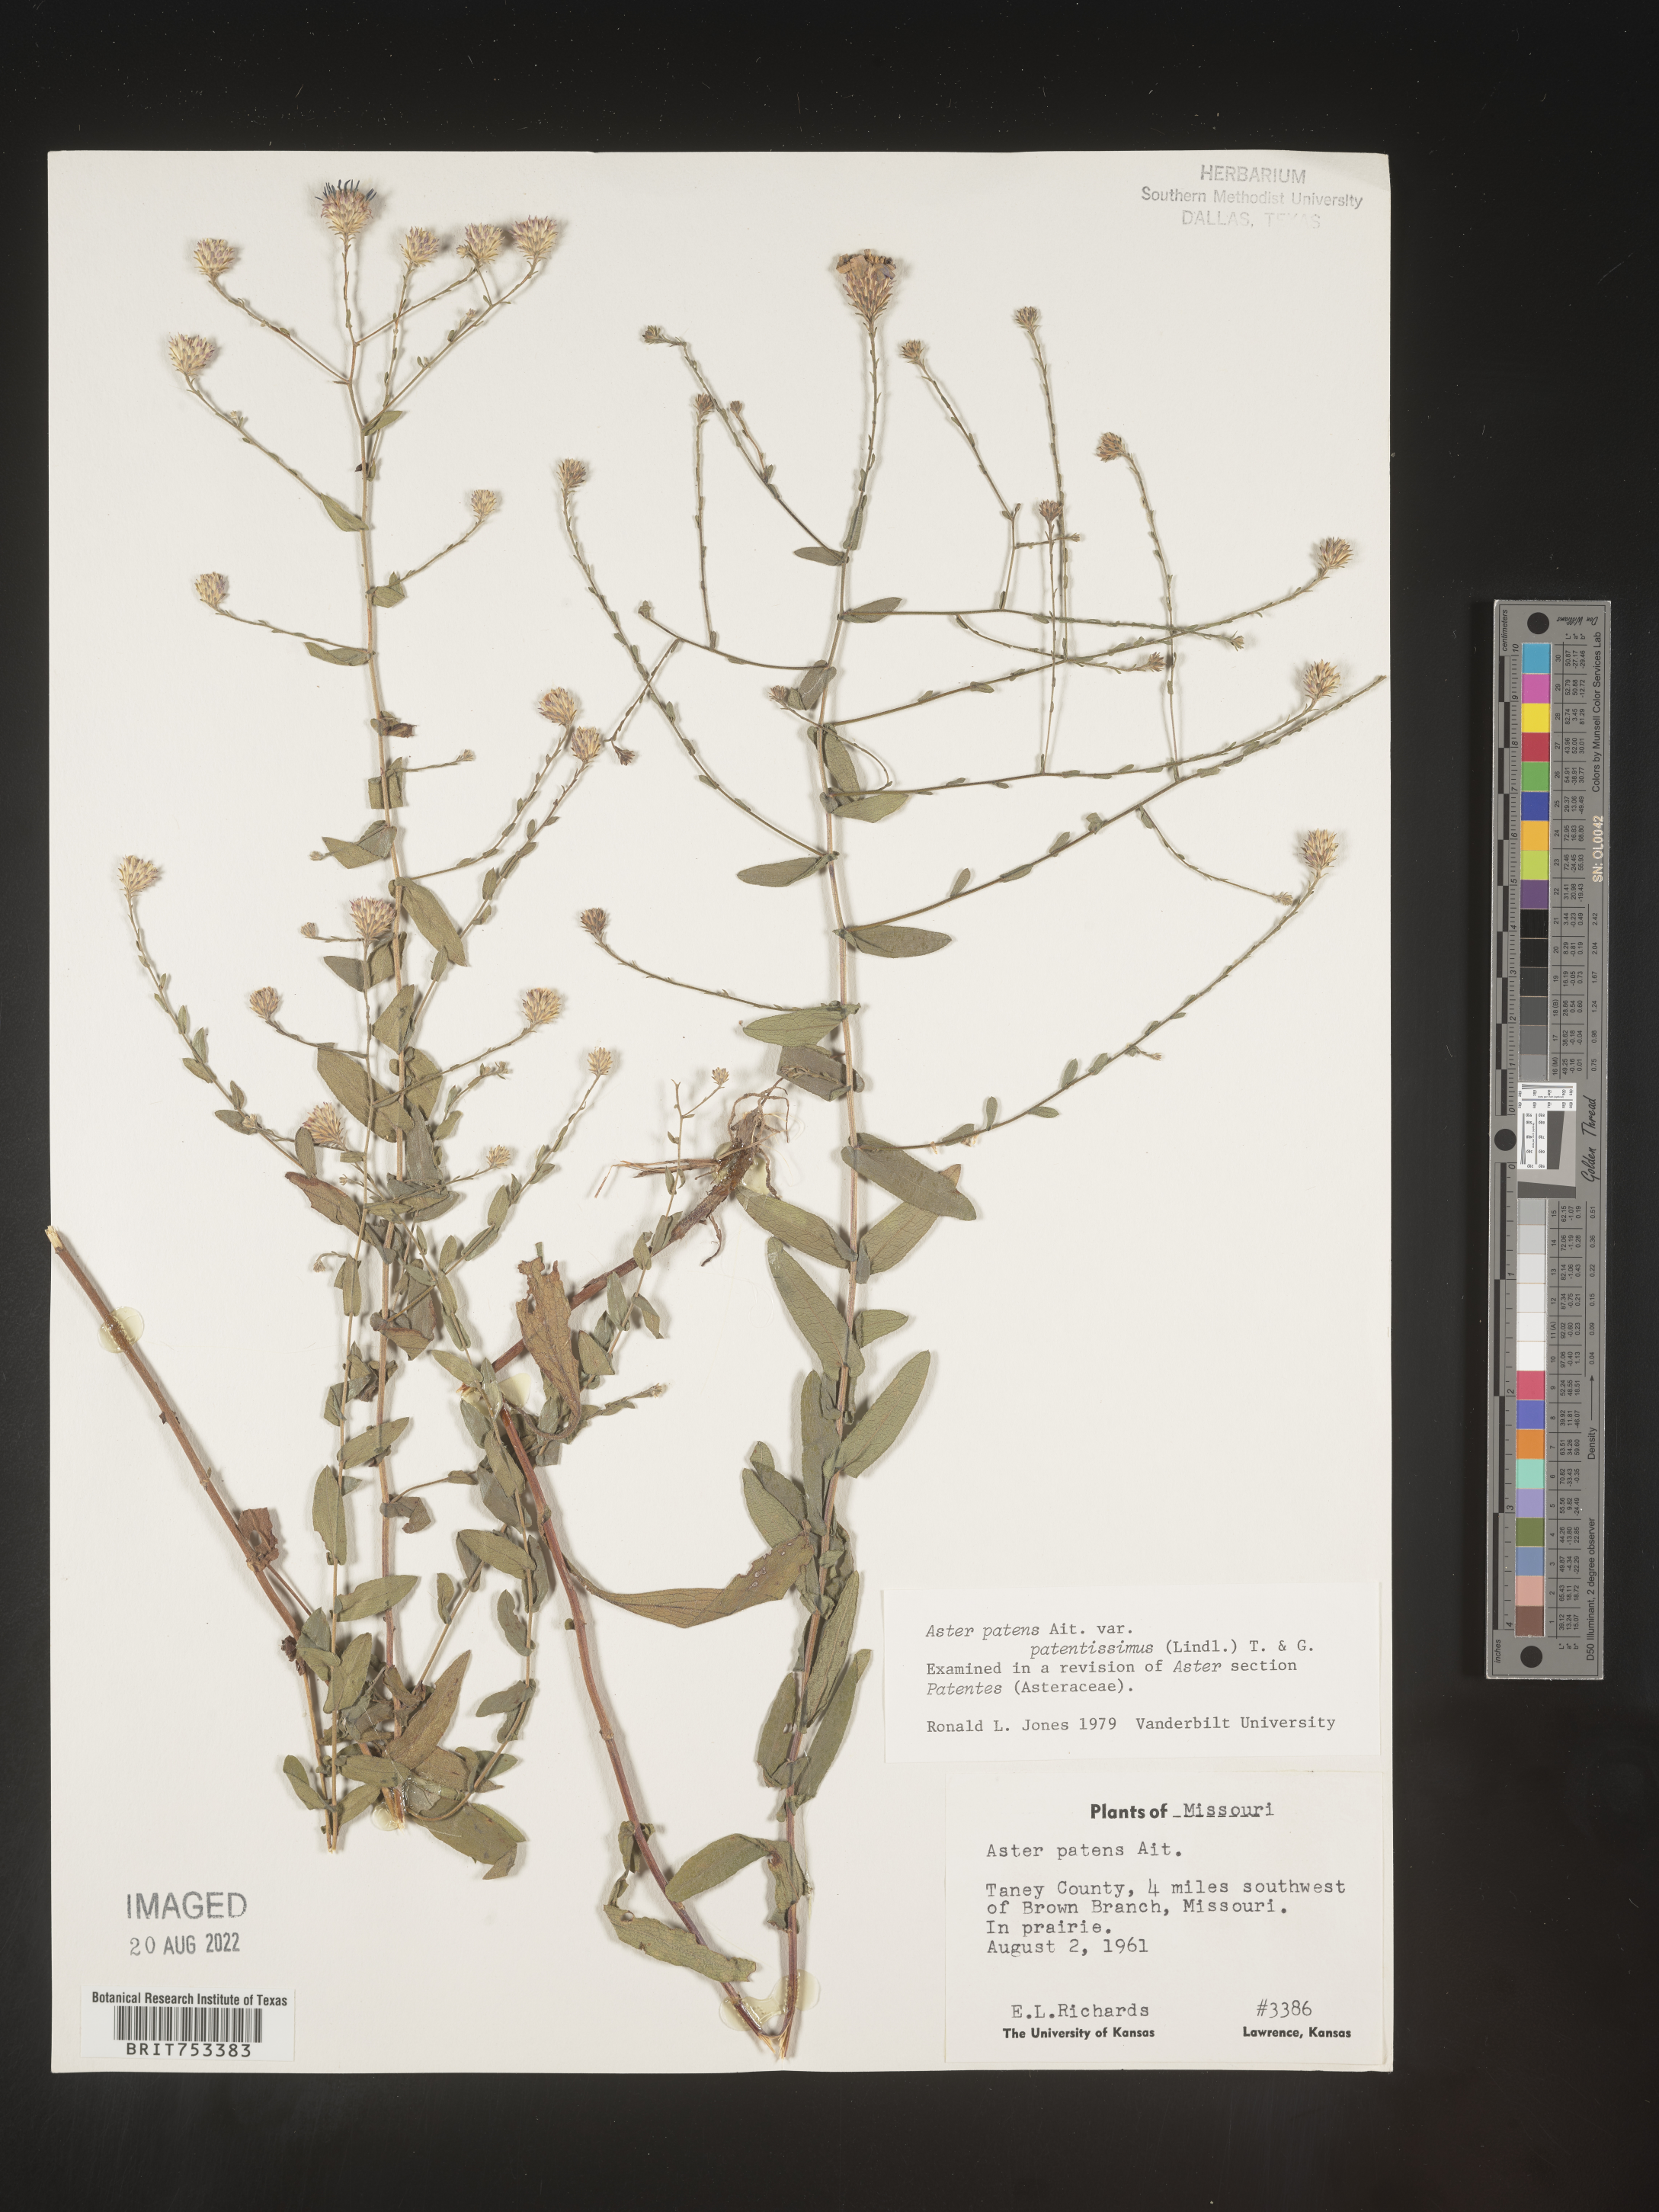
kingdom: Plantae
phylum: Tracheophyta
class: Magnoliopsida
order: Asterales
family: Asteraceae
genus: Symphyotrichum
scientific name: Symphyotrichum patens
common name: Late purple aster
